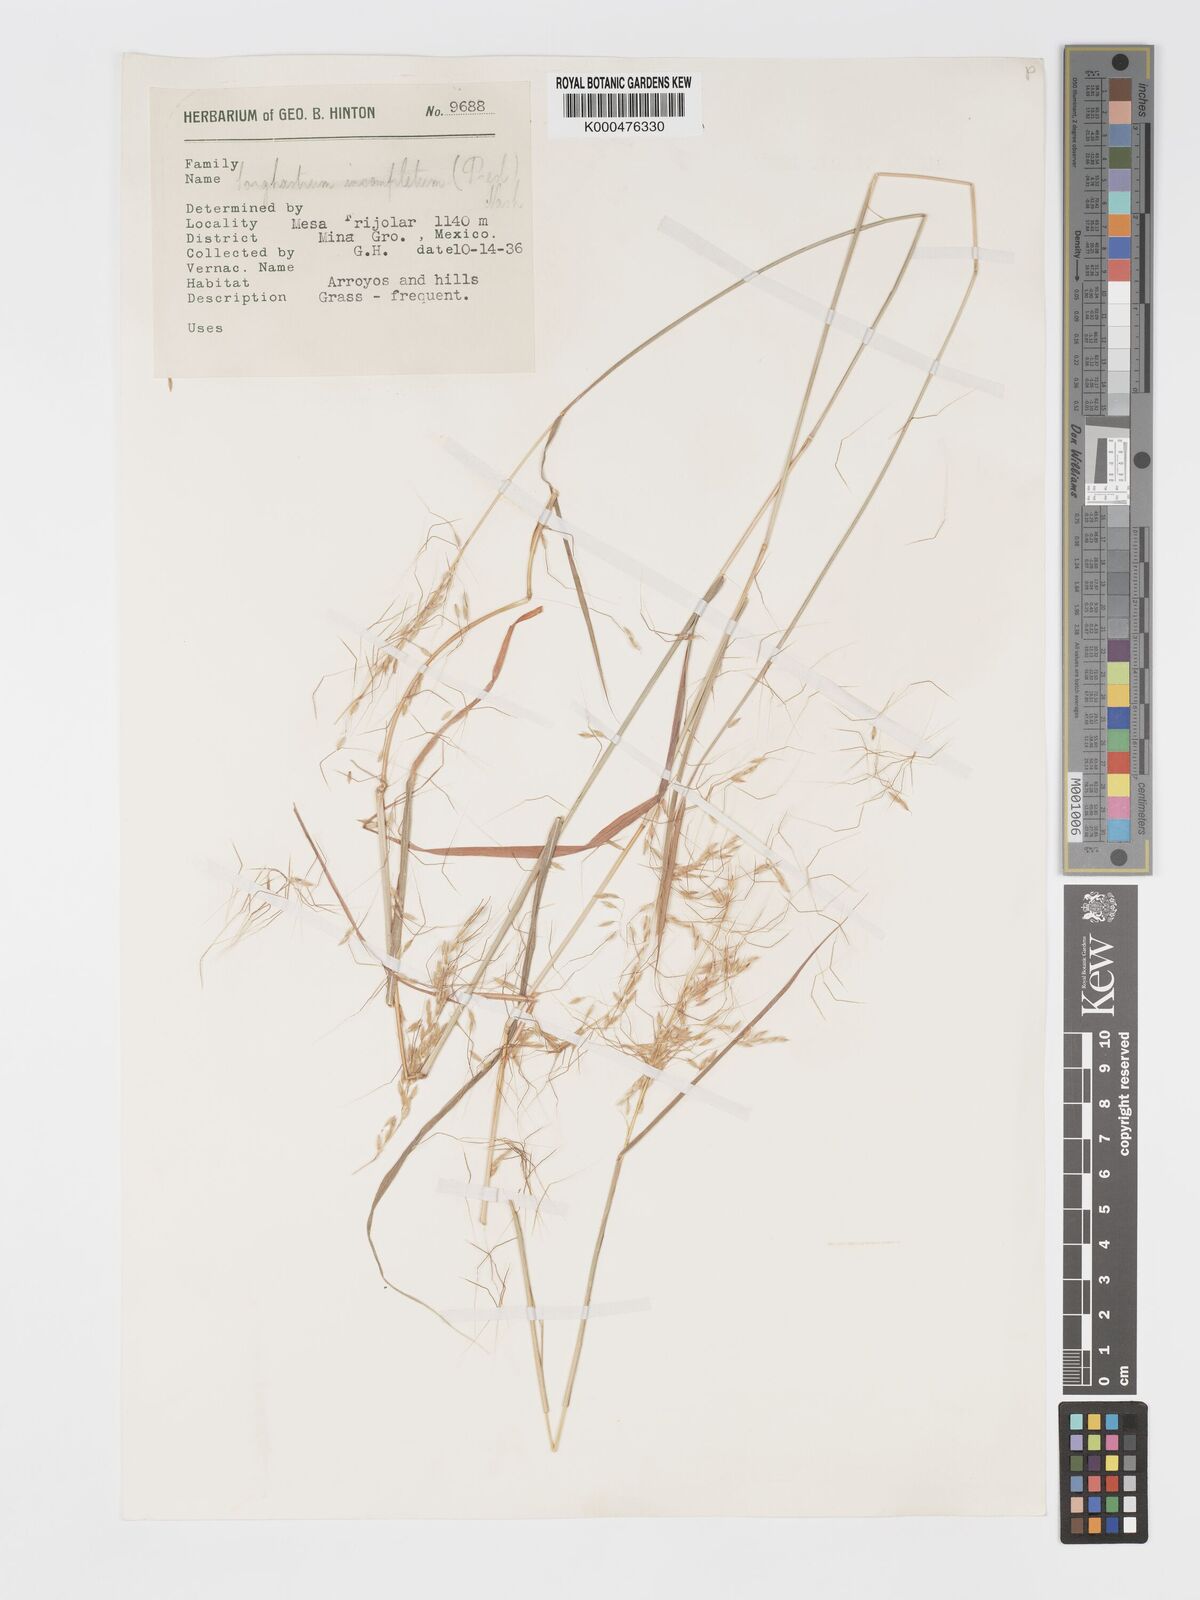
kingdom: Plantae
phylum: Tracheophyta
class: Liliopsida
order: Poales
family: Poaceae
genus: Sorghastrum
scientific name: Sorghastrum incompletum
